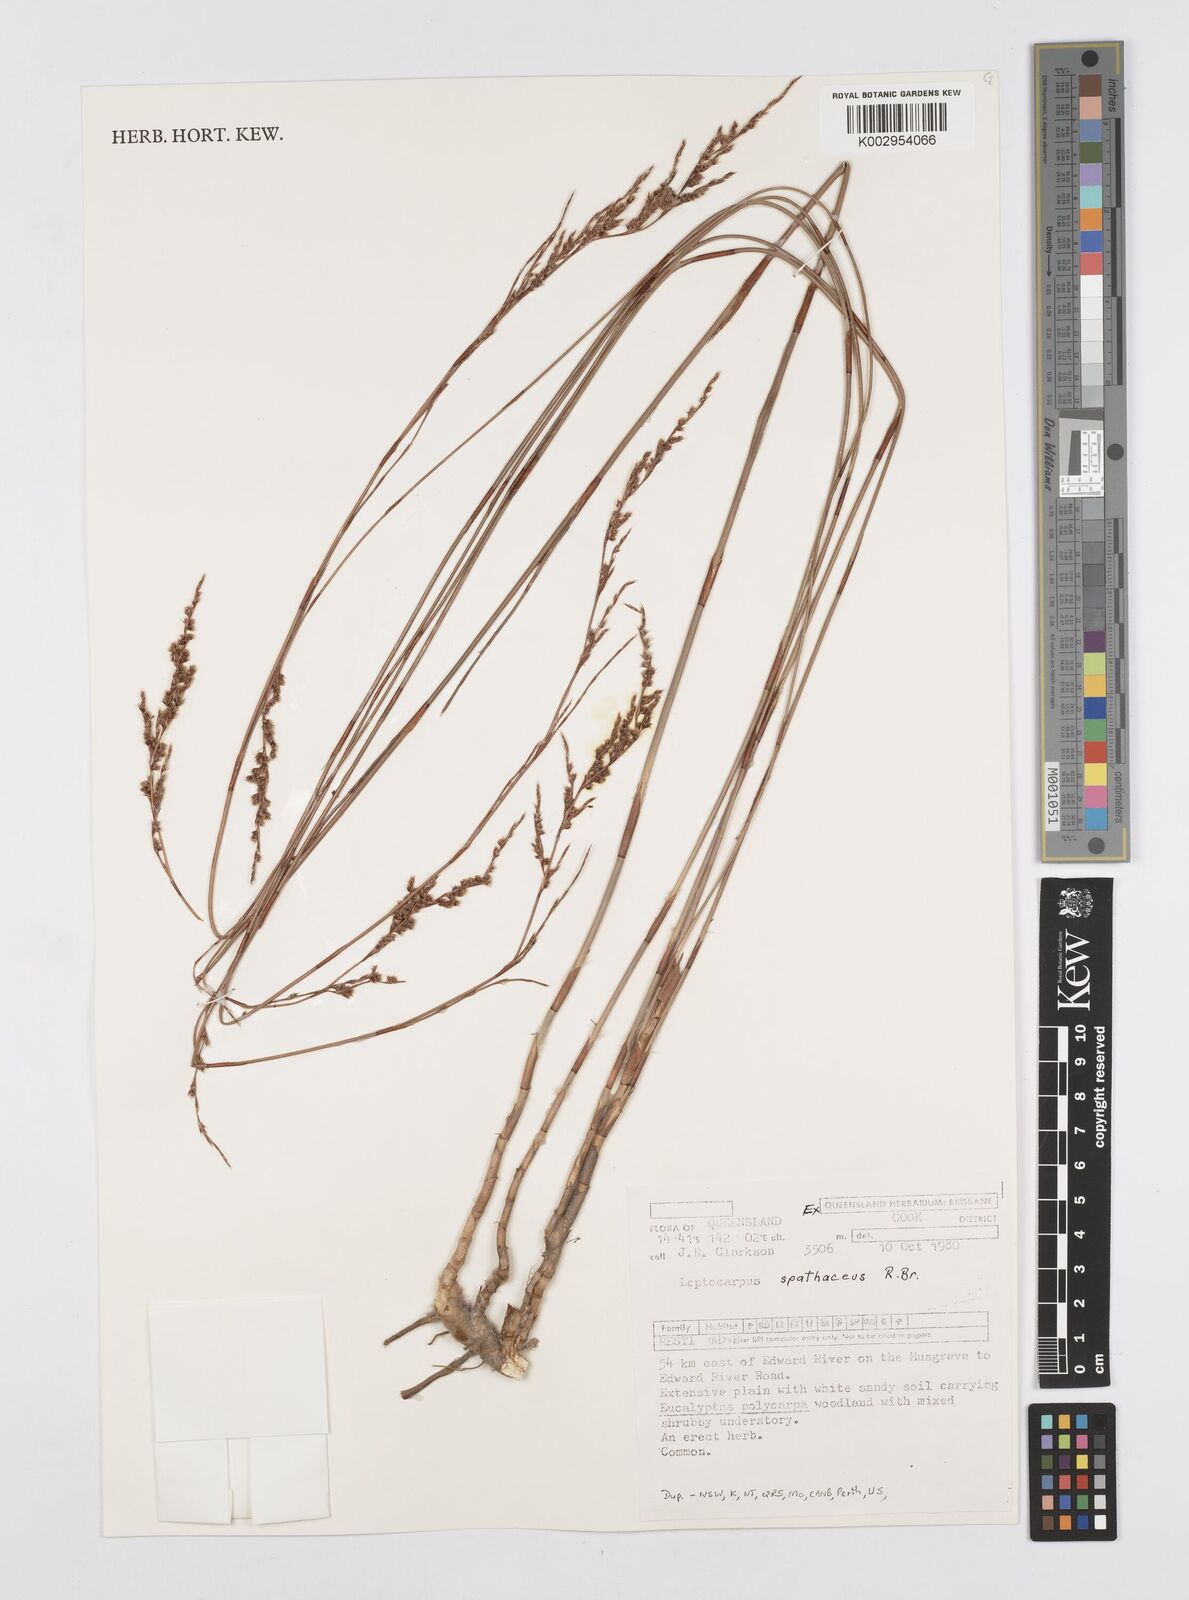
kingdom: Plantae
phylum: Tracheophyta
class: Liliopsida
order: Poales
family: Restionaceae
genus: Dapsilanthus
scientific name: Dapsilanthus spathaceus
